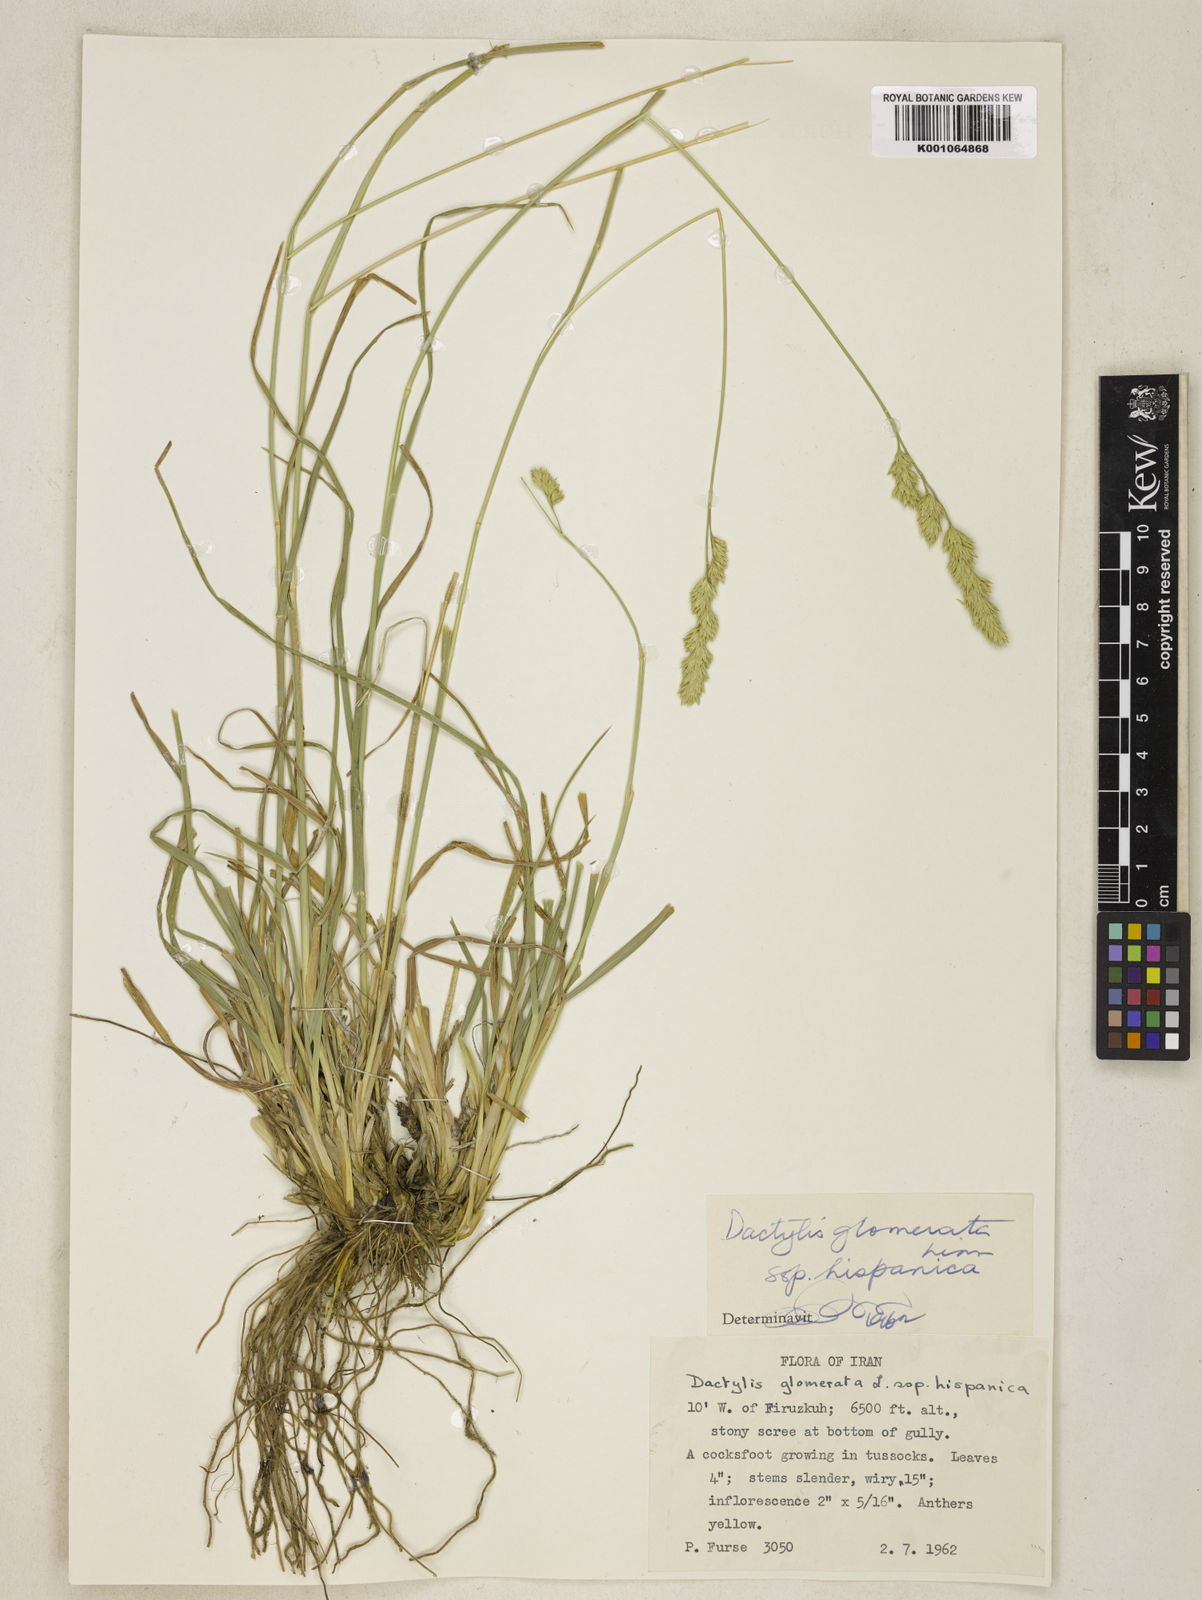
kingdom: Plantae
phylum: Tracheophyta
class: Liliopsida
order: Poales
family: Poaceae
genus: Dactylis
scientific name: Dactylis glomerata
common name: Orchardgrass
